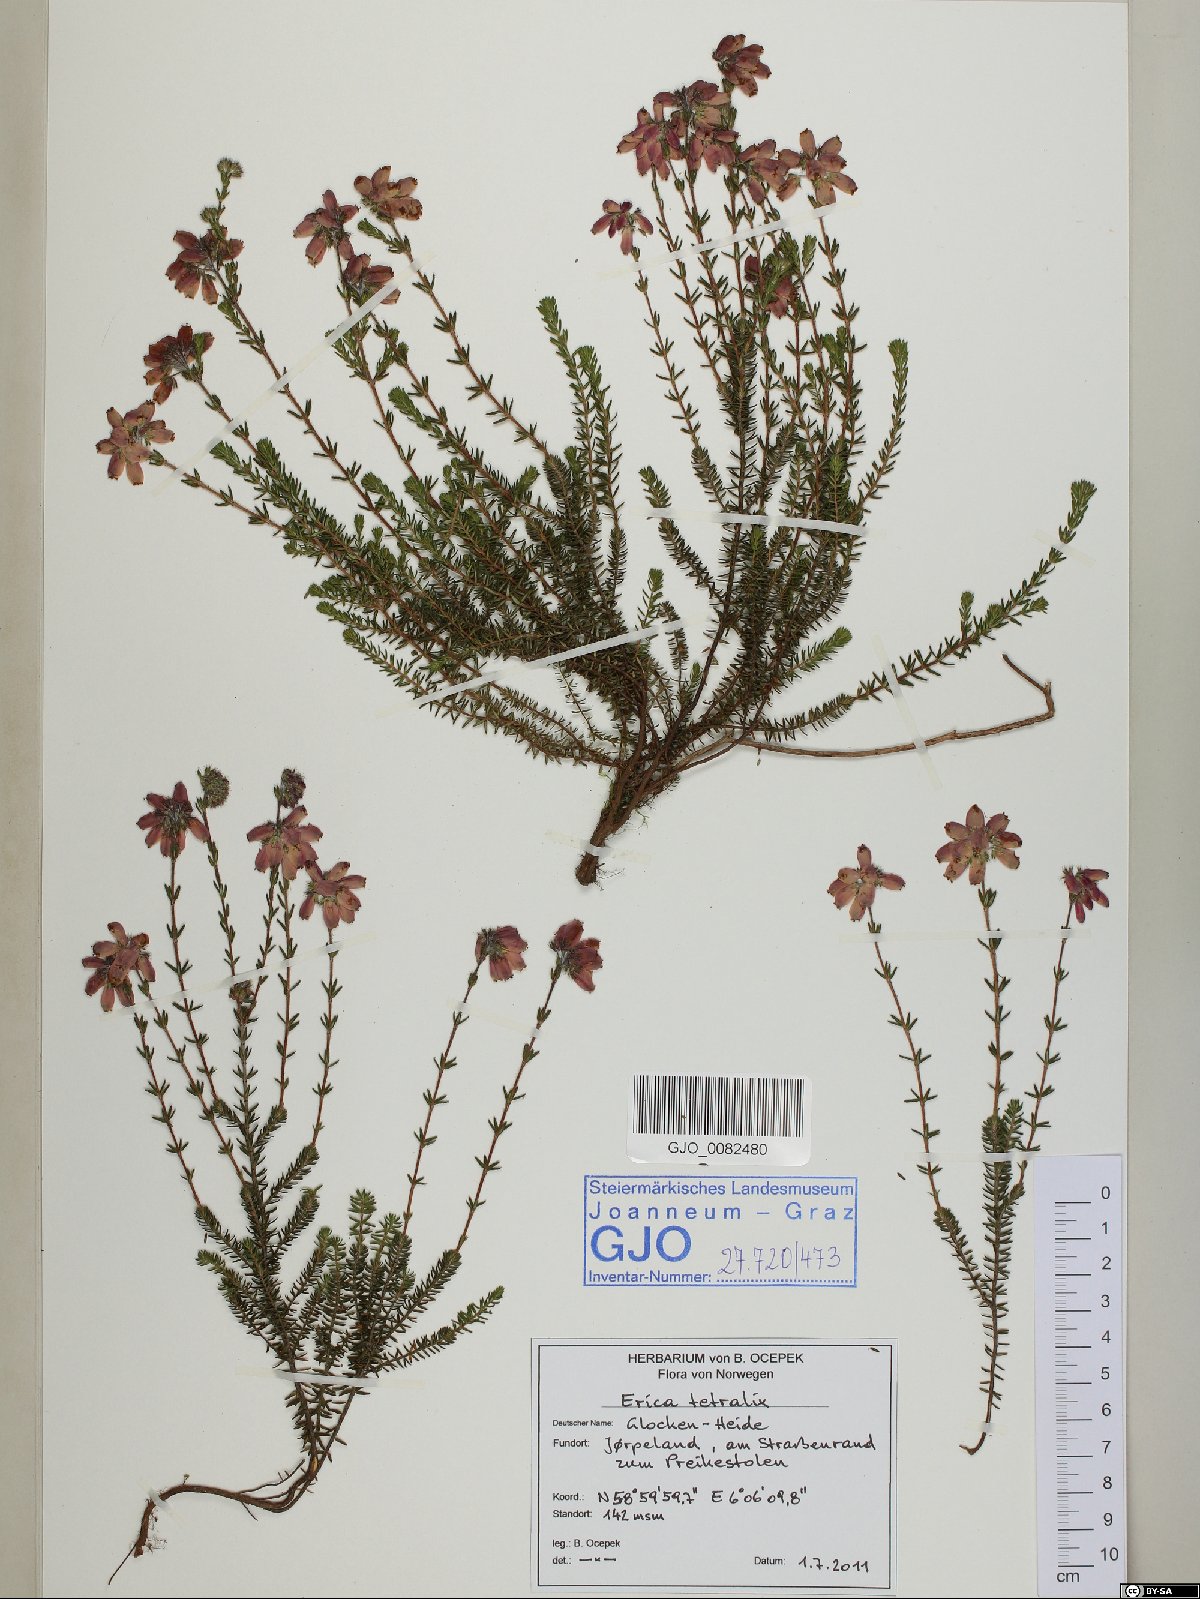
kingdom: Plantae
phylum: Tracheophyta
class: Magnoliopsida
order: Ericales
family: Ericaceae
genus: Erica
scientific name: Erica tetralix
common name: Cross-leaved heath
